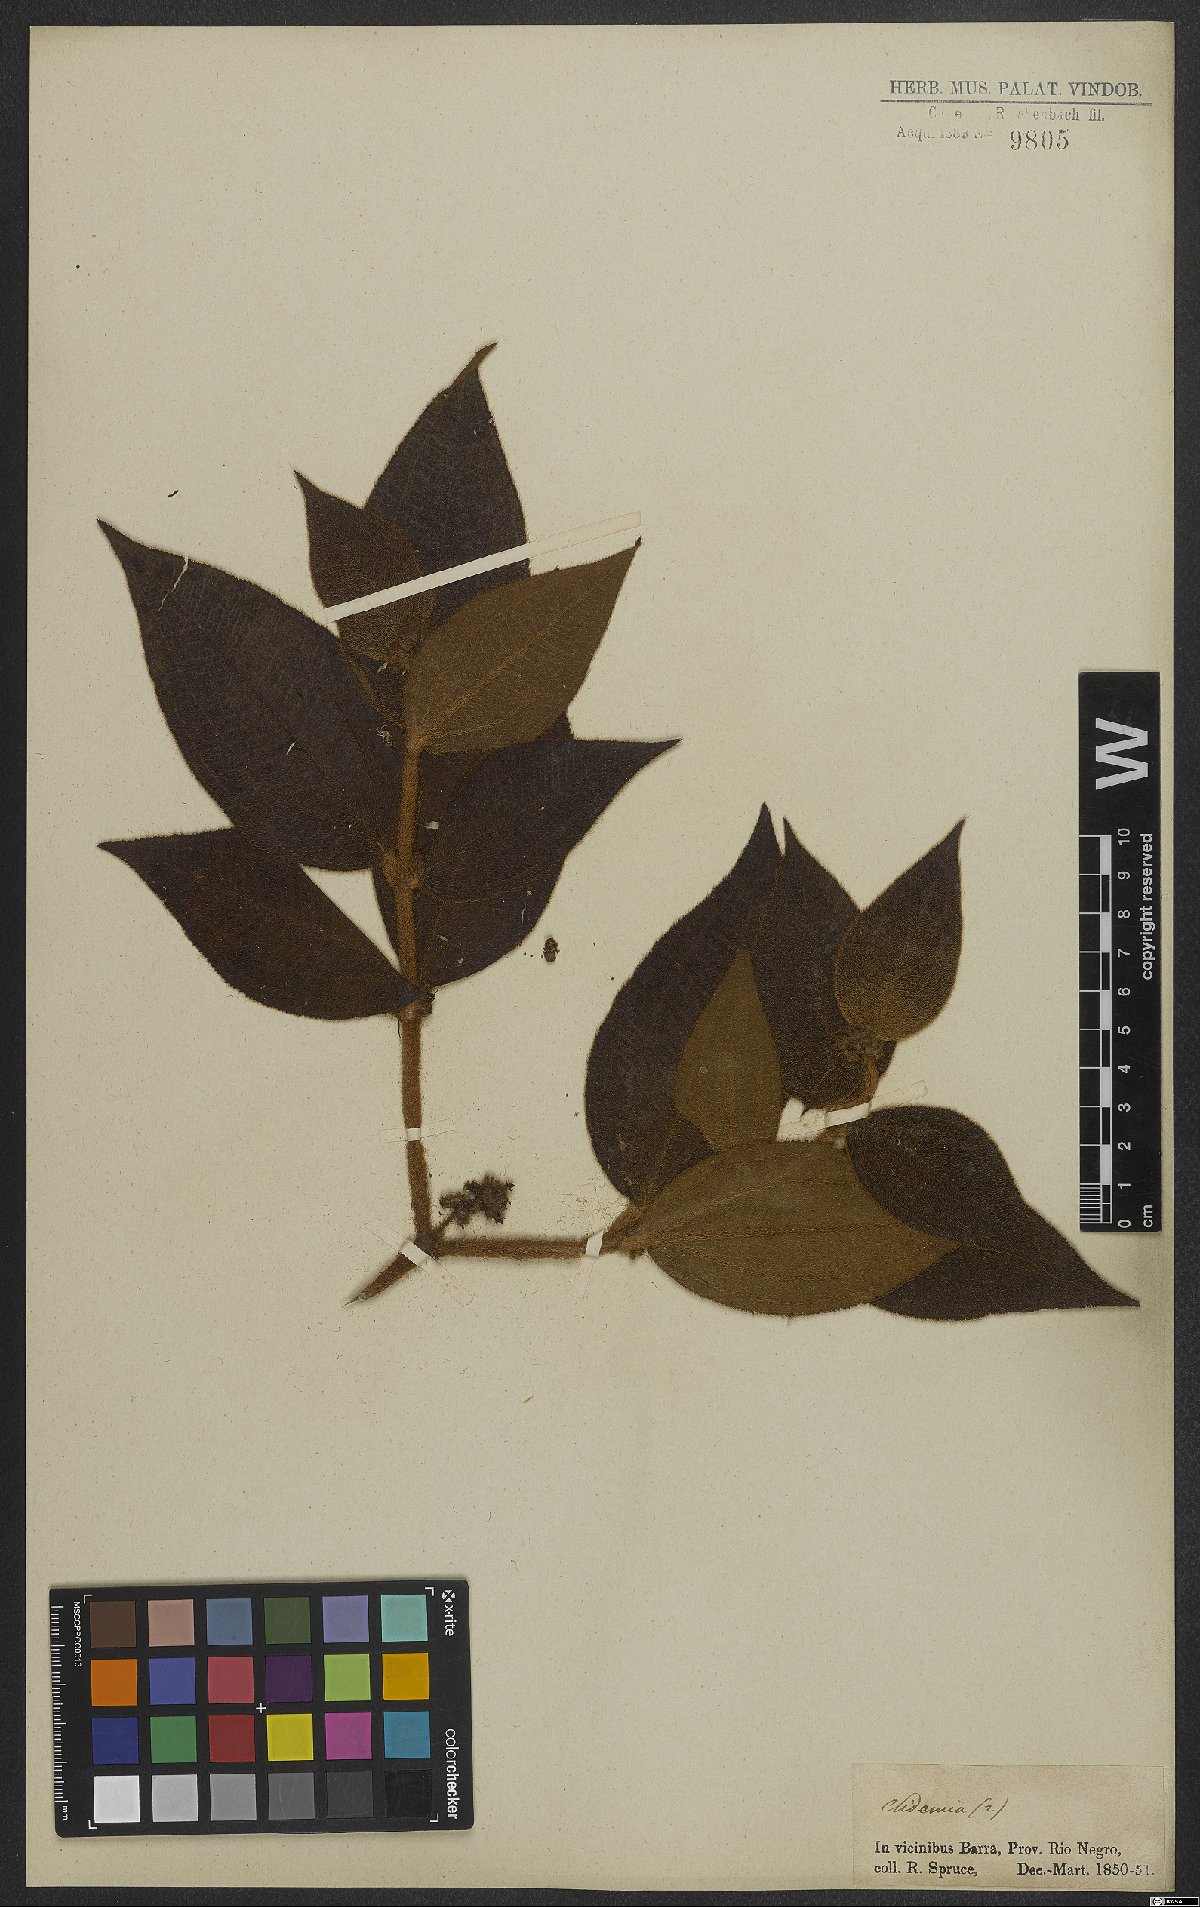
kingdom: Plantae
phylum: Tracheophyta
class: Magnoliopsida
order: Myrtales
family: Melastomataceae
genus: Miconia
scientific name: Miconia
